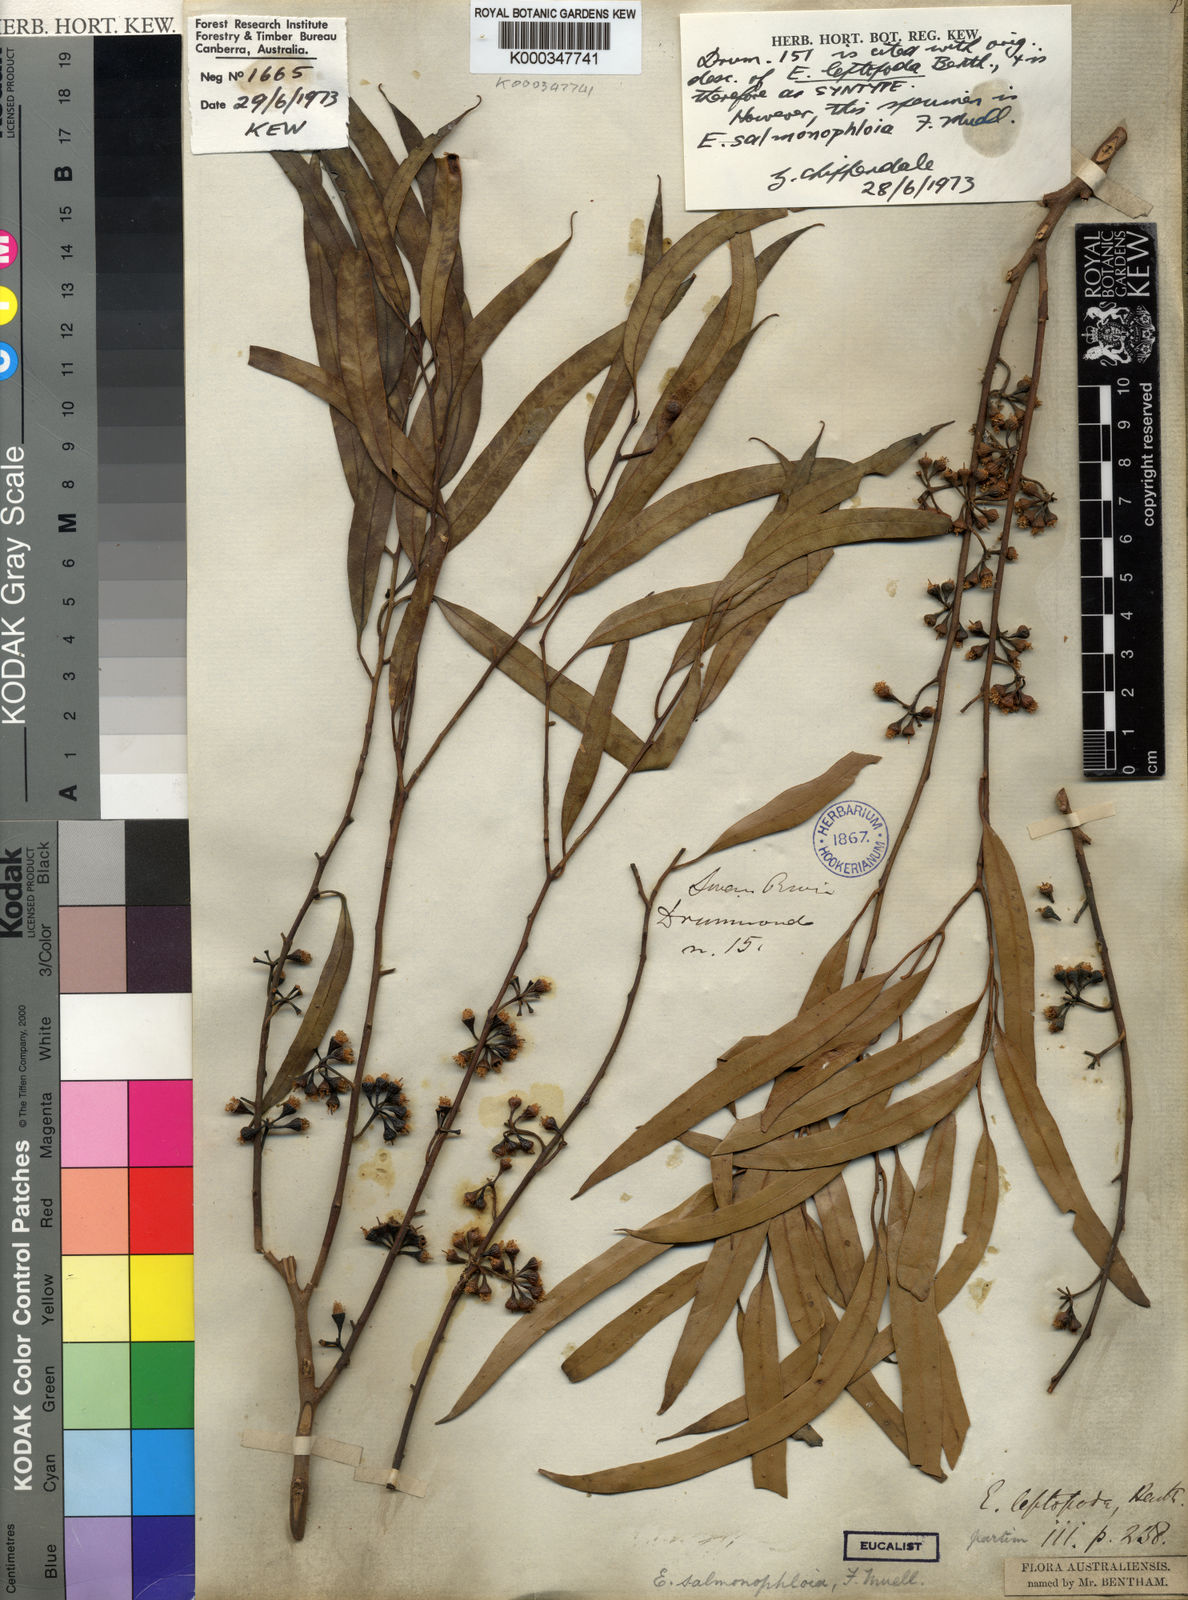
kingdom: Plantae
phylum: Tracheophyta
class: Magnoliopsida
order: Myrtales
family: Myrtaceae
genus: Eucalyptus
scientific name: Eucalyptus salmonophloia
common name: Salmon gum
